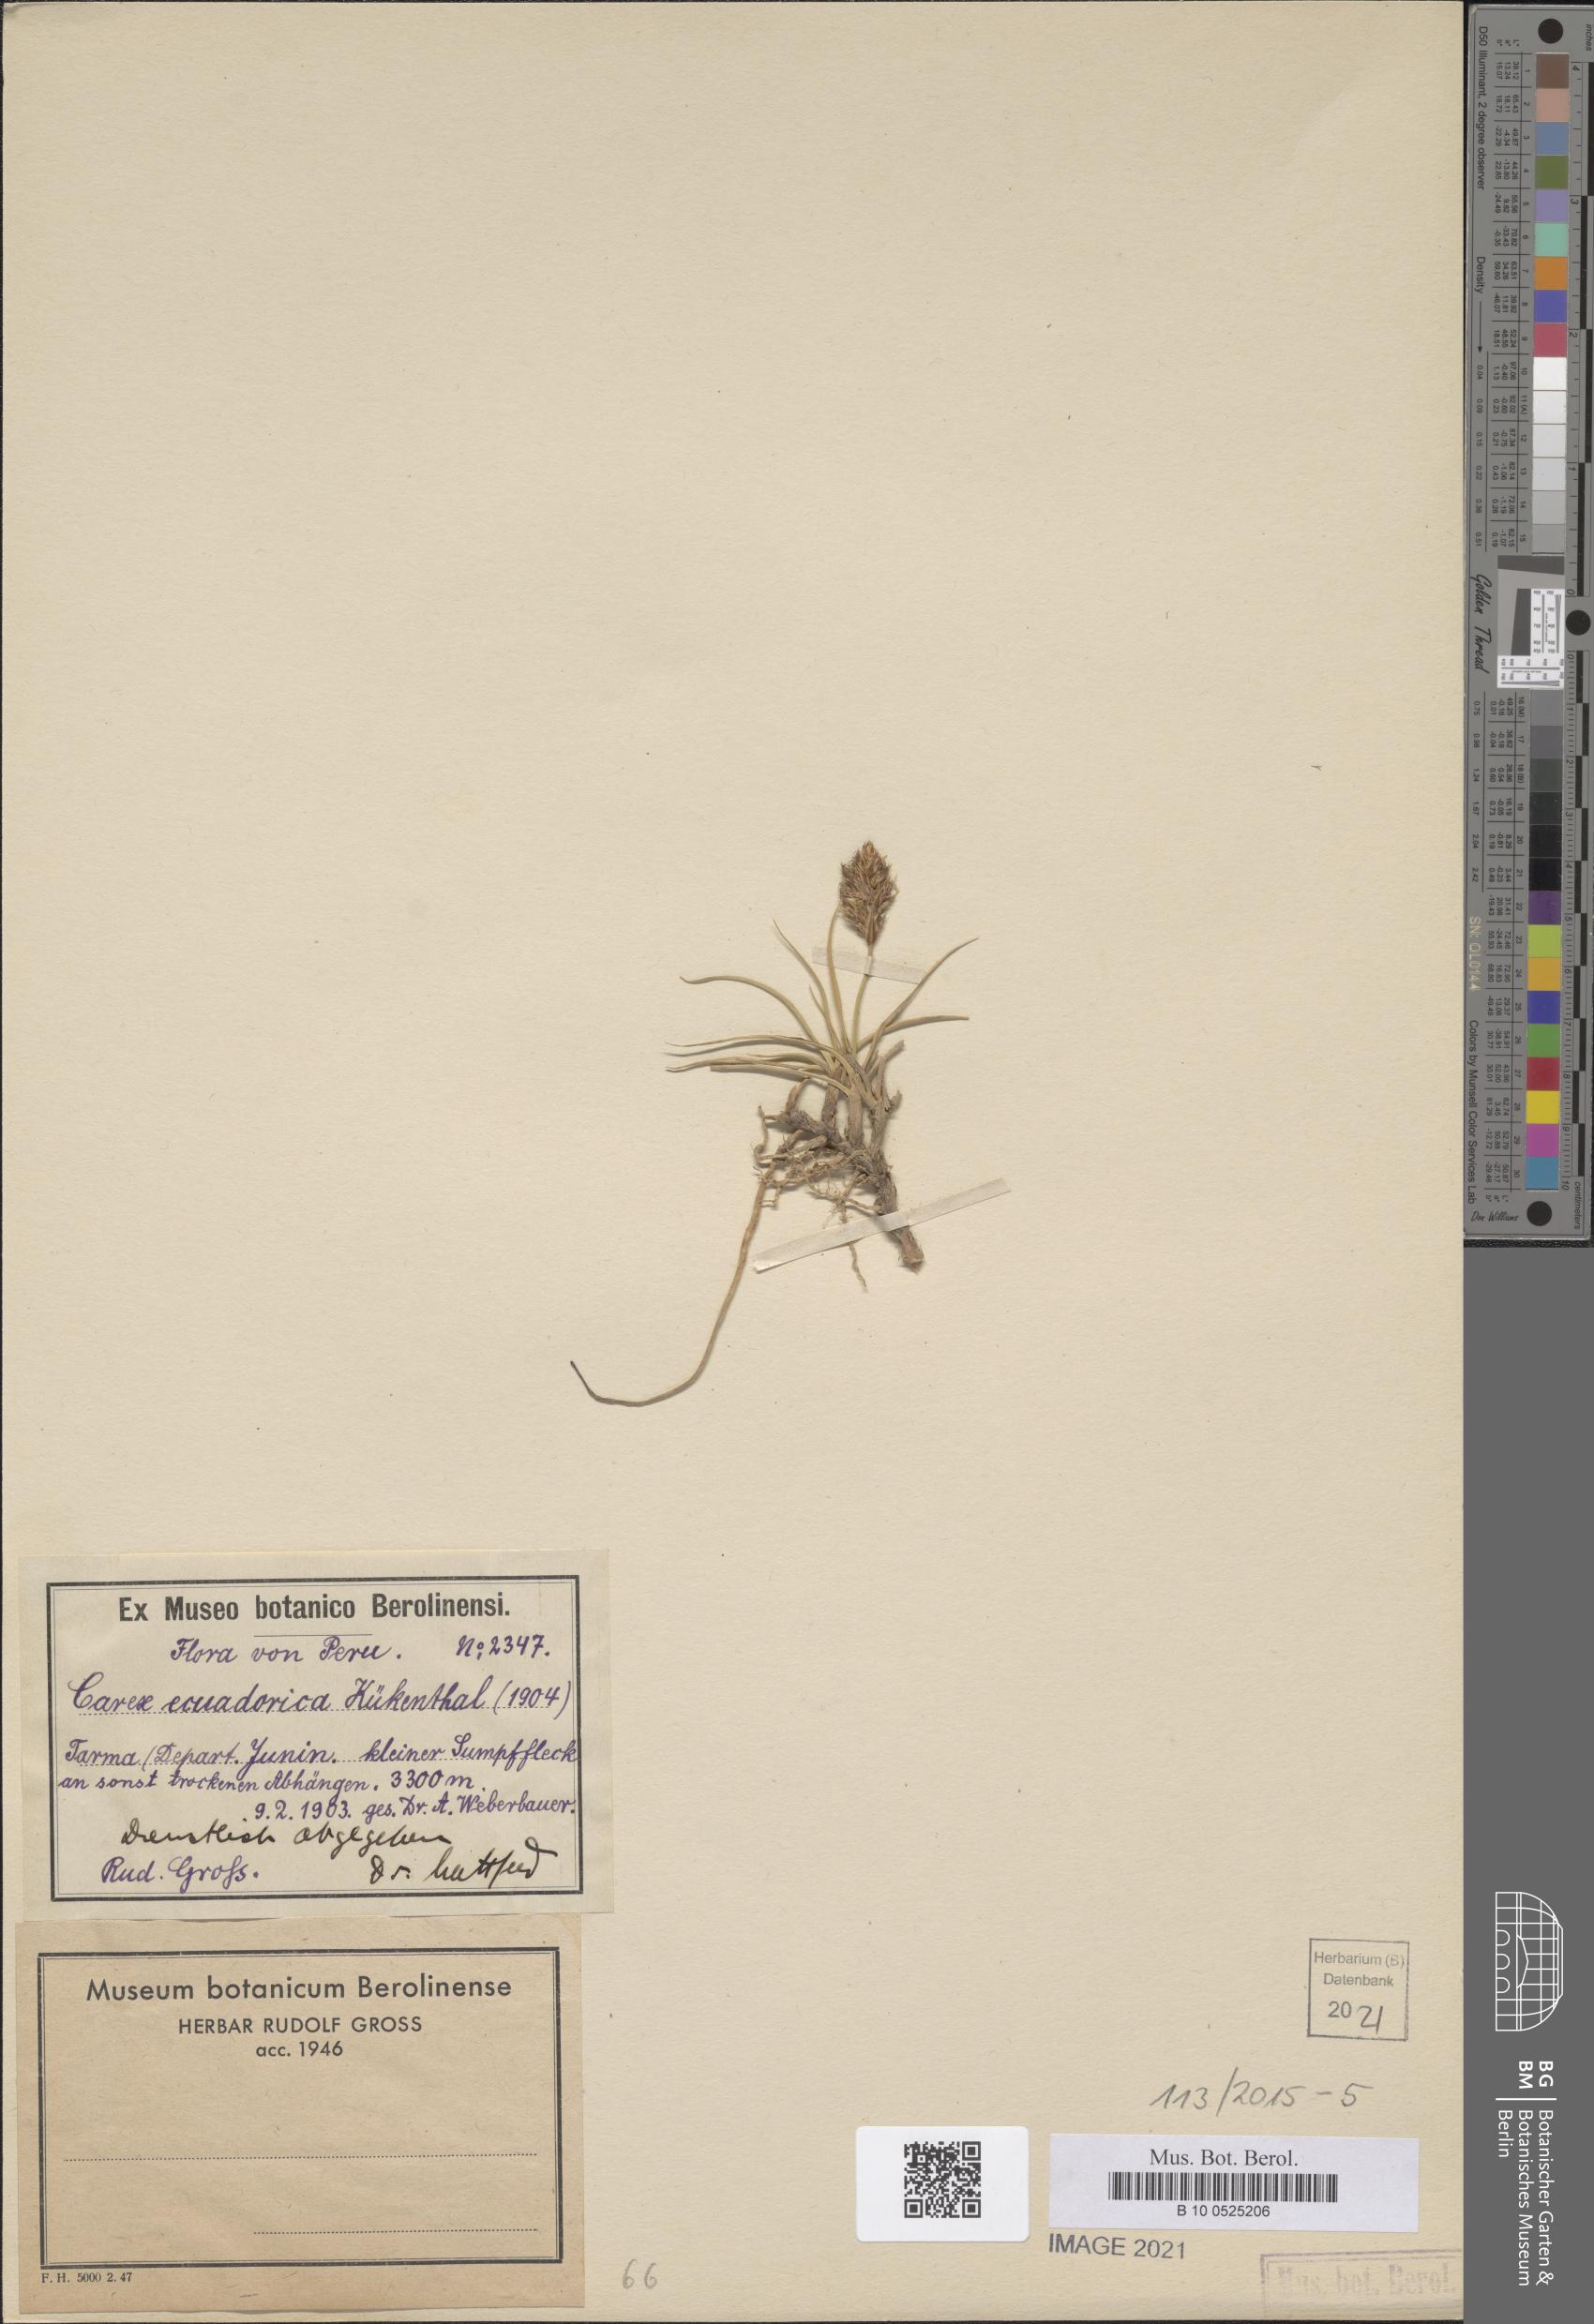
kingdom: Plantae
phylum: Tracheophyta
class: Liliopsida
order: Poales
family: Cyperaceae
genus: Carex
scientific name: Carex ecuadorica
